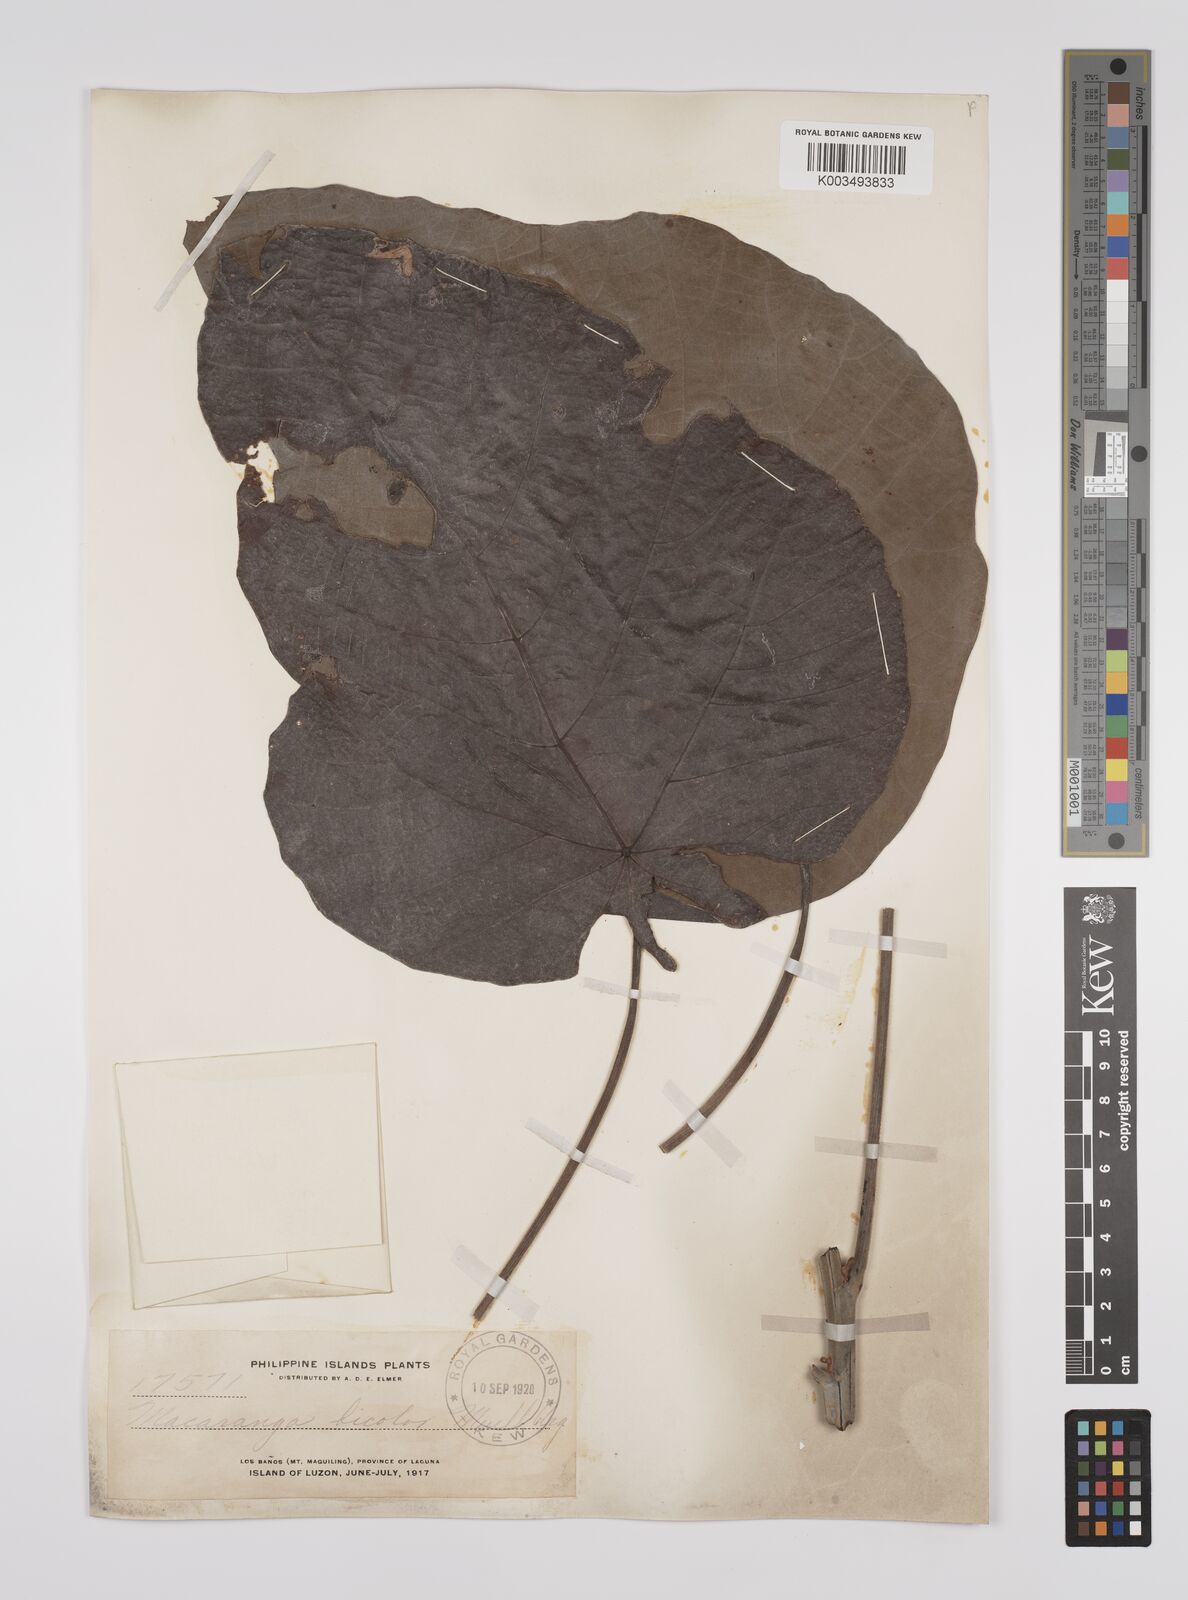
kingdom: Plantae
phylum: Tracheophyta
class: Magnoliopsida
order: Malpighiales
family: Euphorbiaceae
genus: Macaranga
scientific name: Macaranga bicolor
